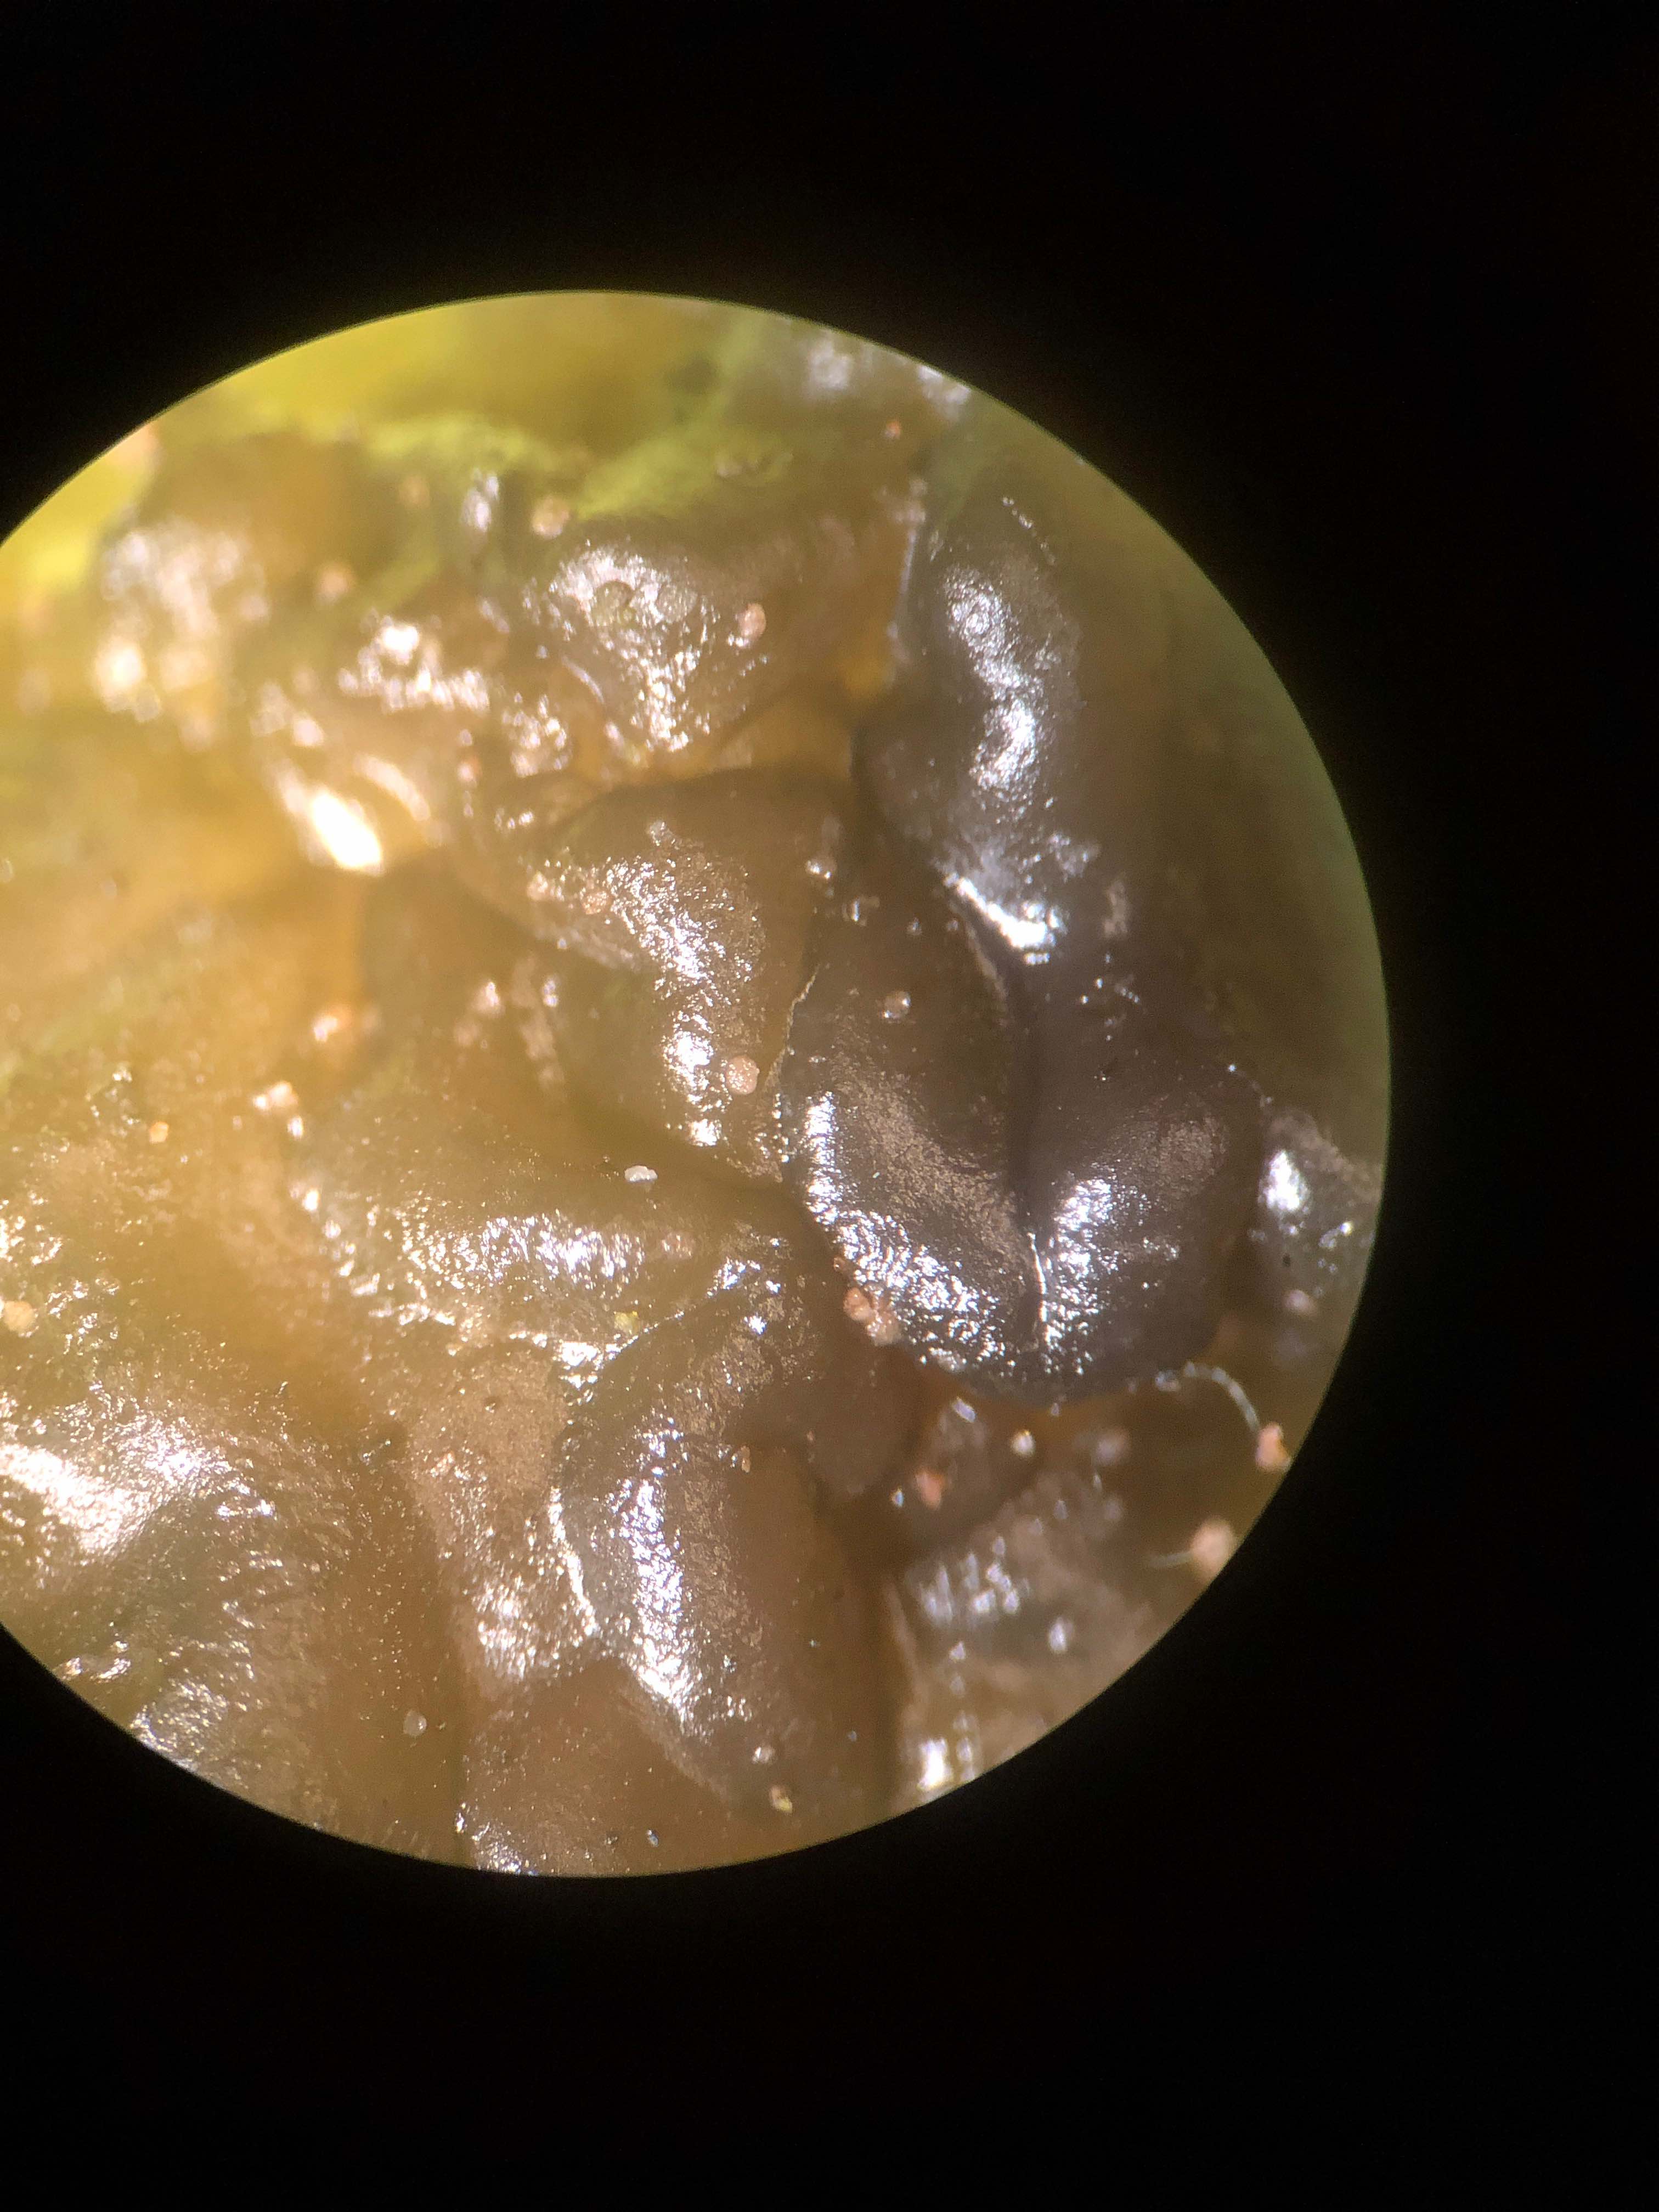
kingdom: Fungi
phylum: Basidiomycota
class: Agaricomycetes
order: Auriculariales
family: Auriculariaceae
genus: Exidia
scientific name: Exidia nigricans
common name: almindelig bævretop
